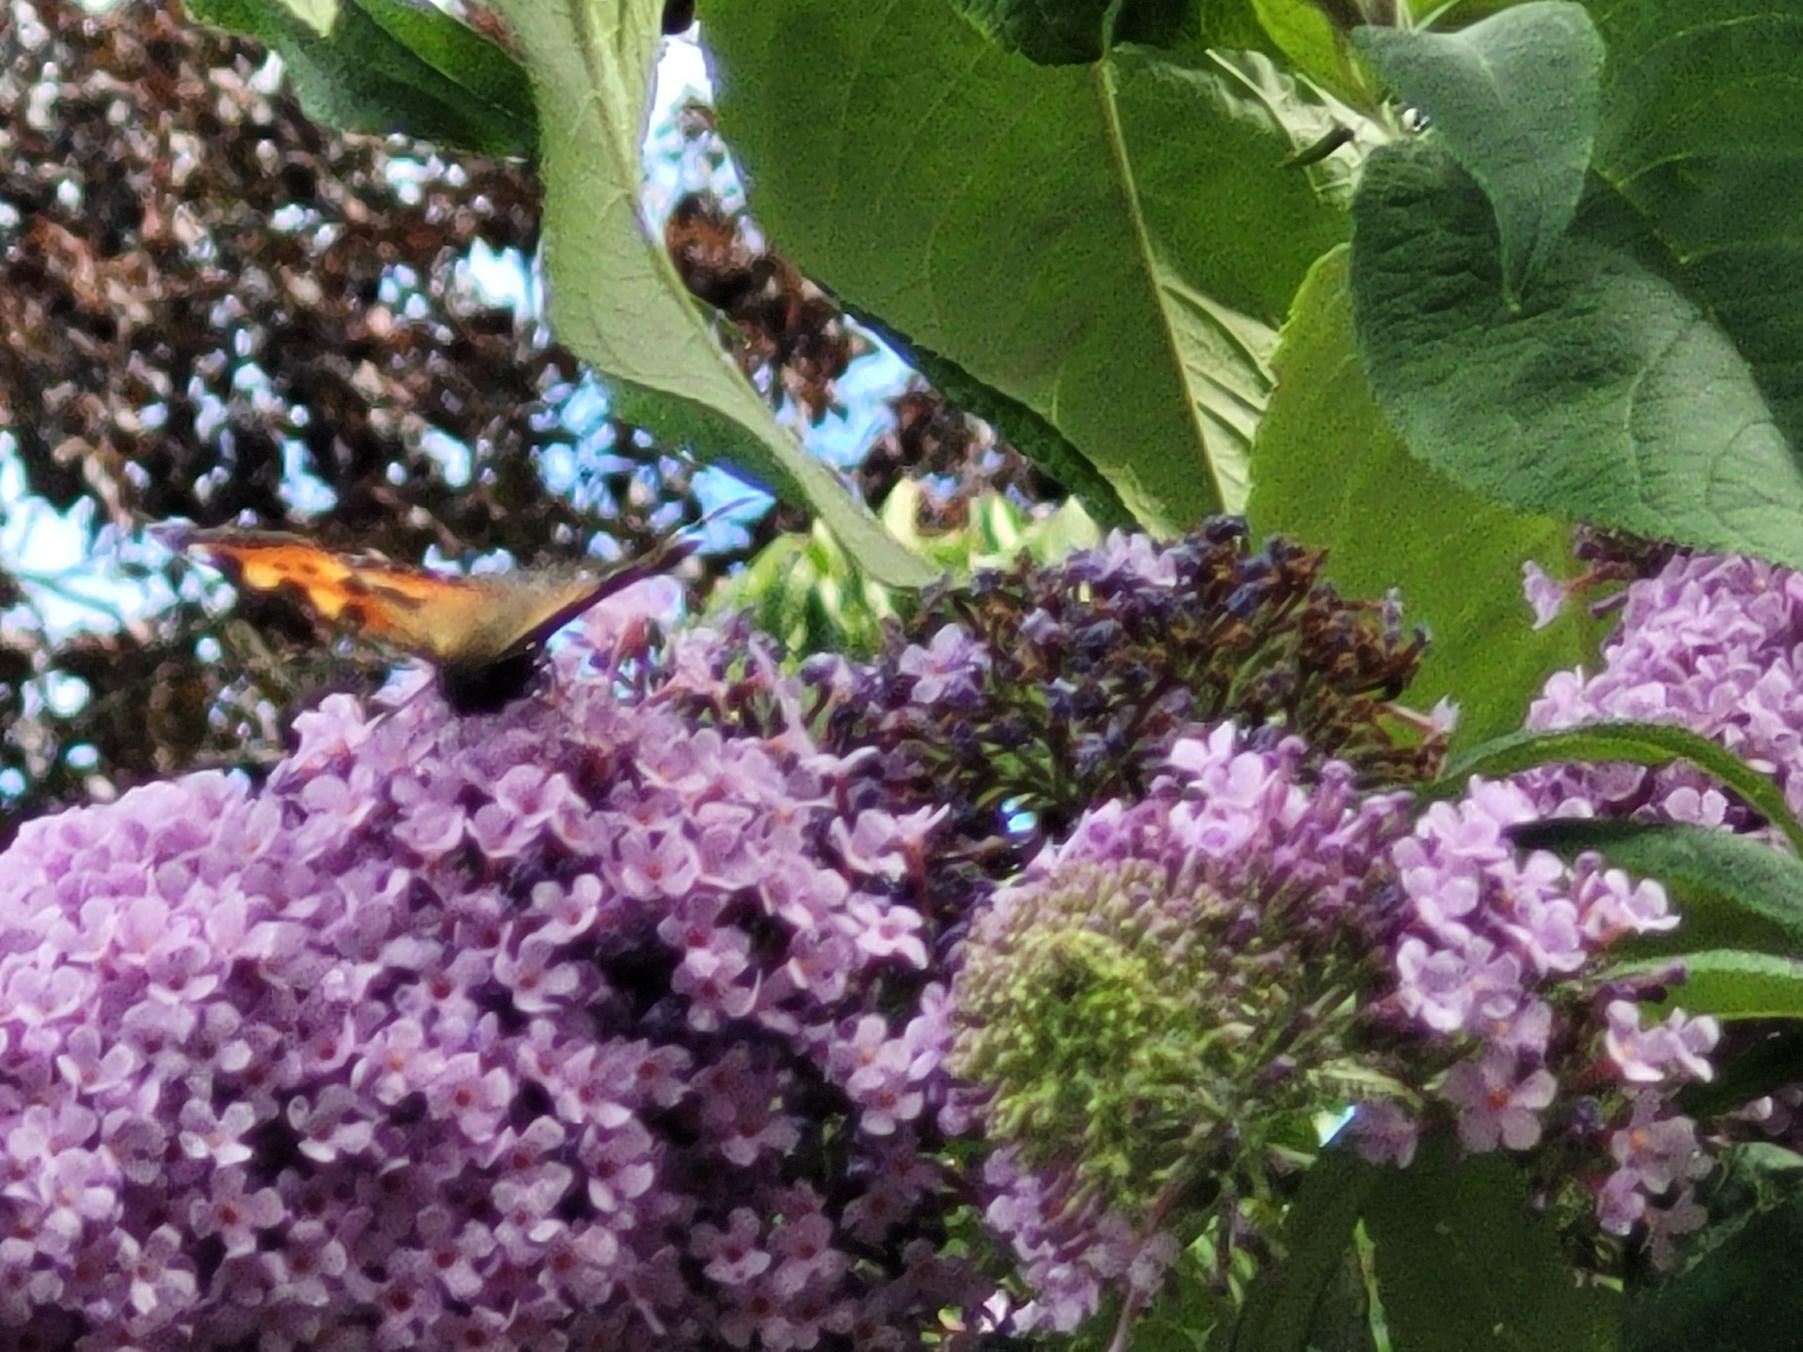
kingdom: Animalia
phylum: Arthropoda
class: Insecta
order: Lepidoptera
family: Nymphalidae
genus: Aglais
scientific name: Aglais urticae
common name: Nældens takvinge
